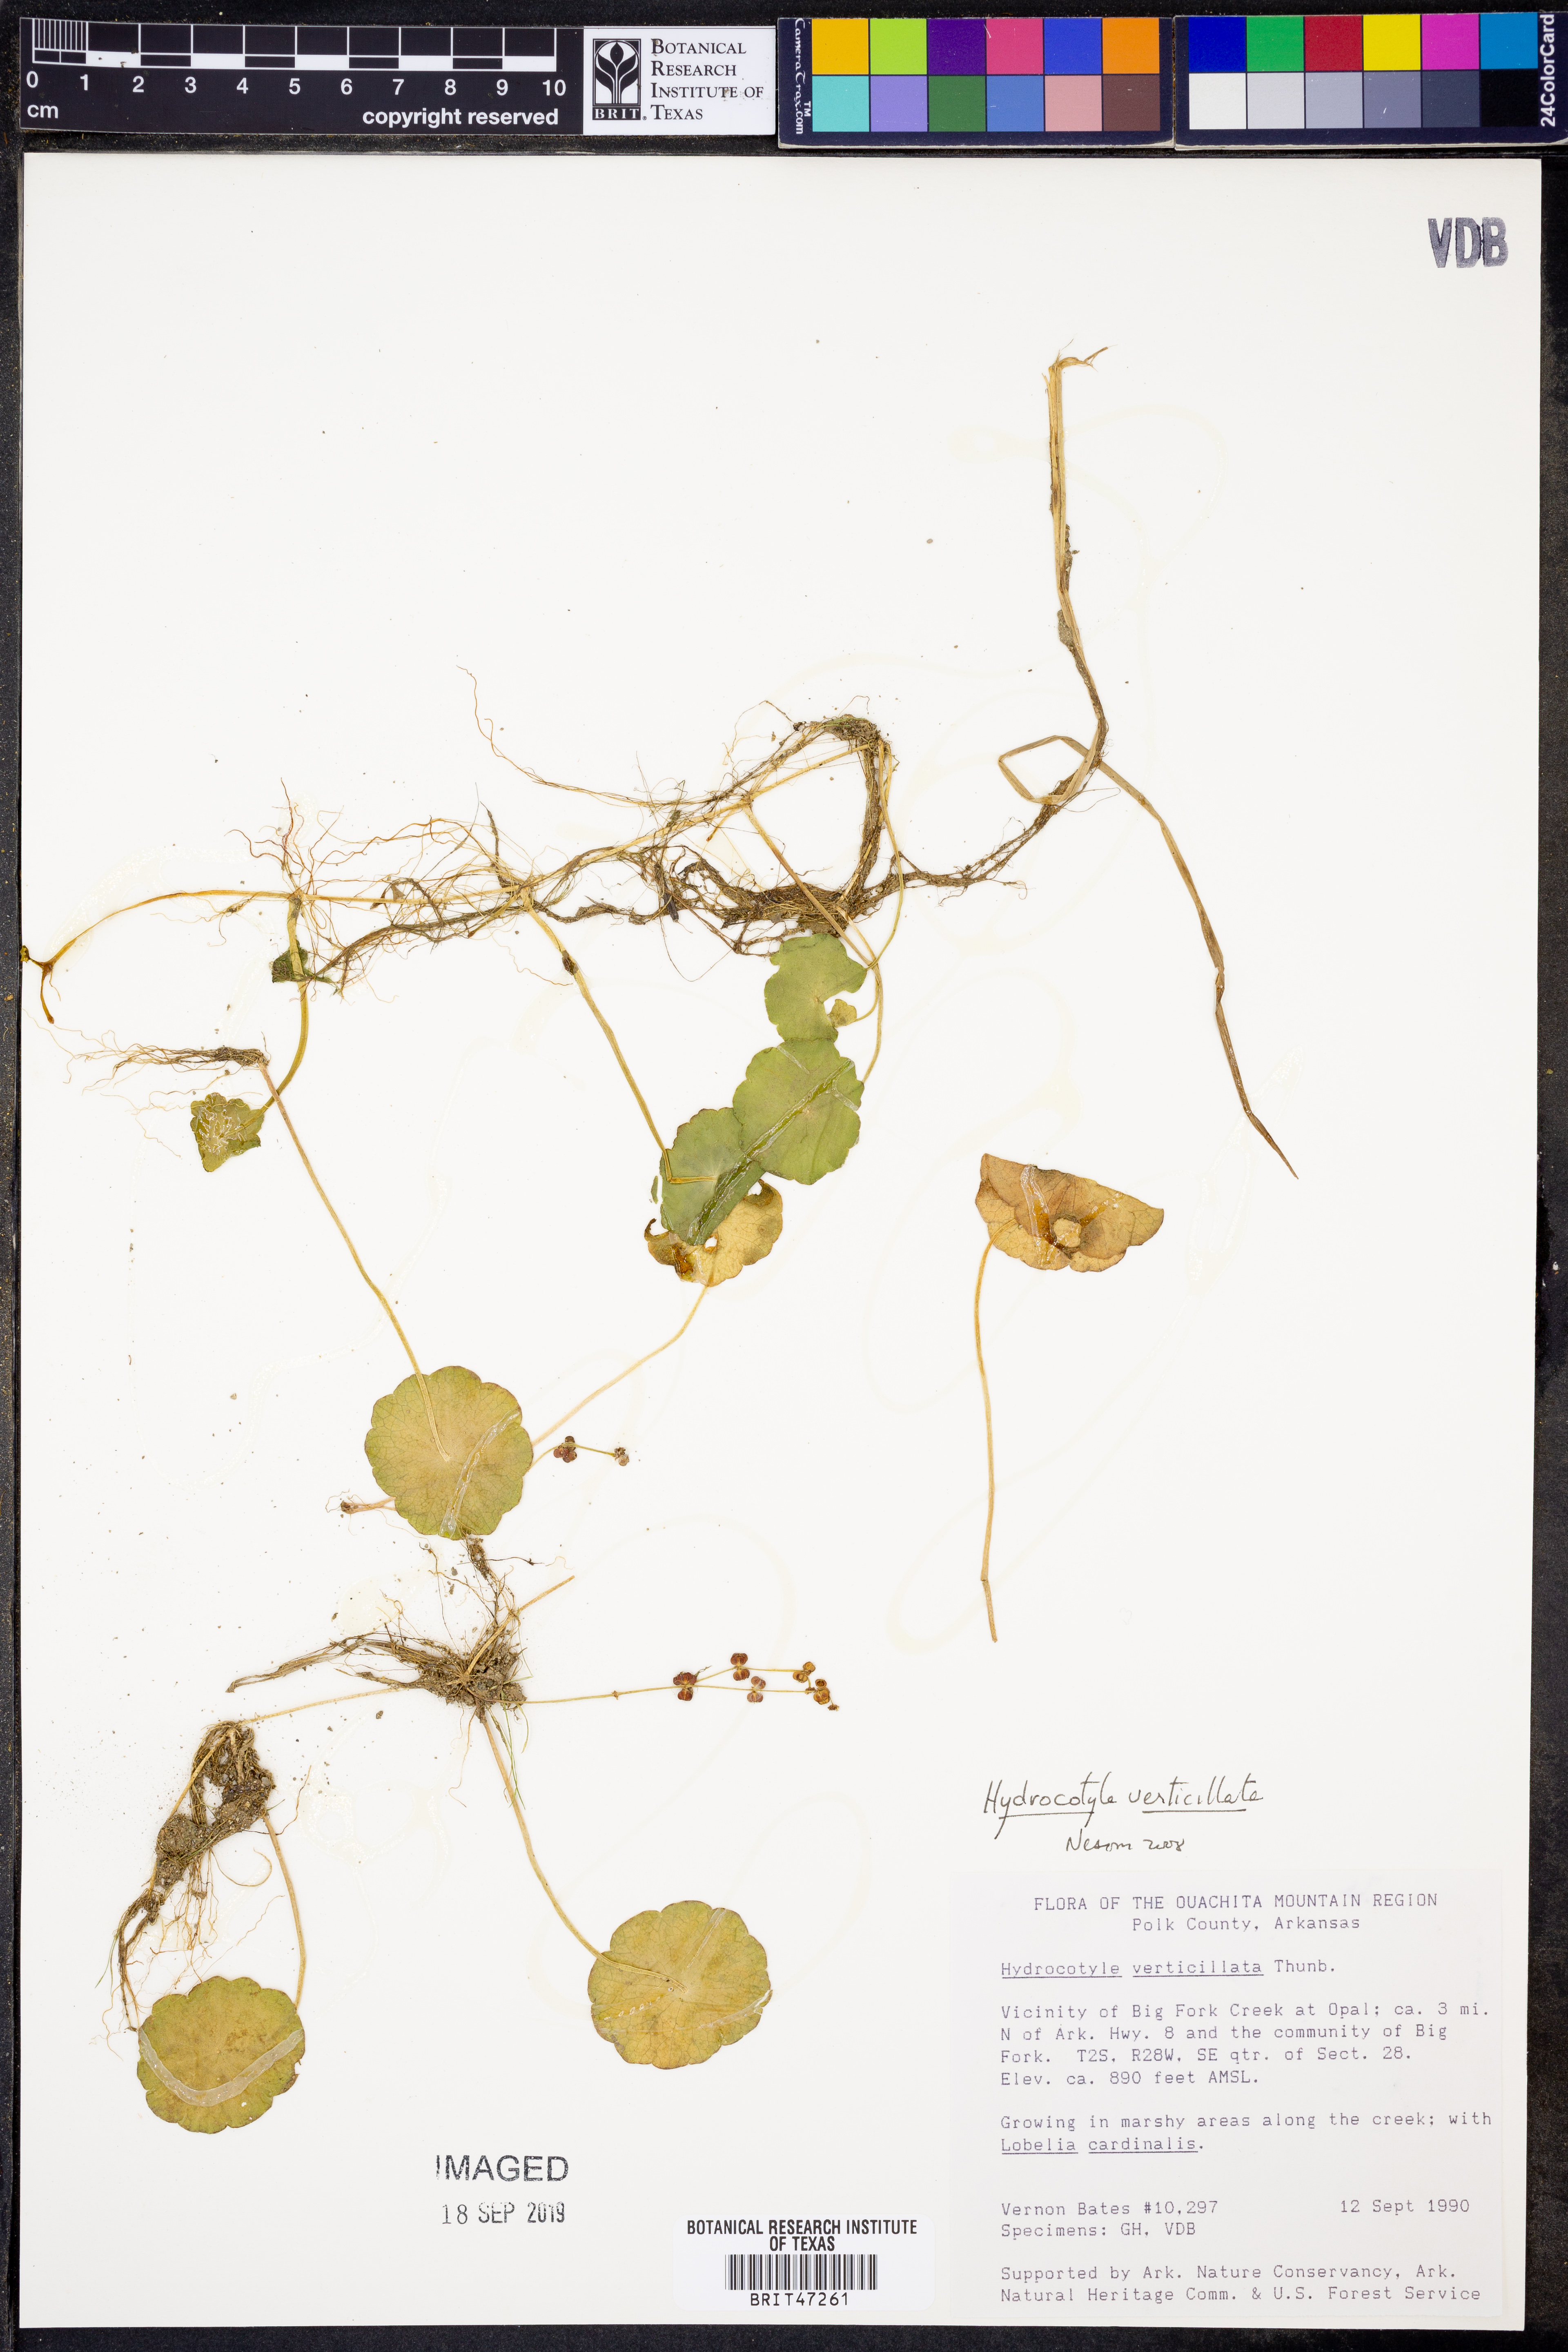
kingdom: Plantae
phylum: Tracheophyta
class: Magnoliopsida
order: Apiales
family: Araliaceae
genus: Hydrocotyle
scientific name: Hydrocotyle verticillata
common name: Whorled marshpennywort
